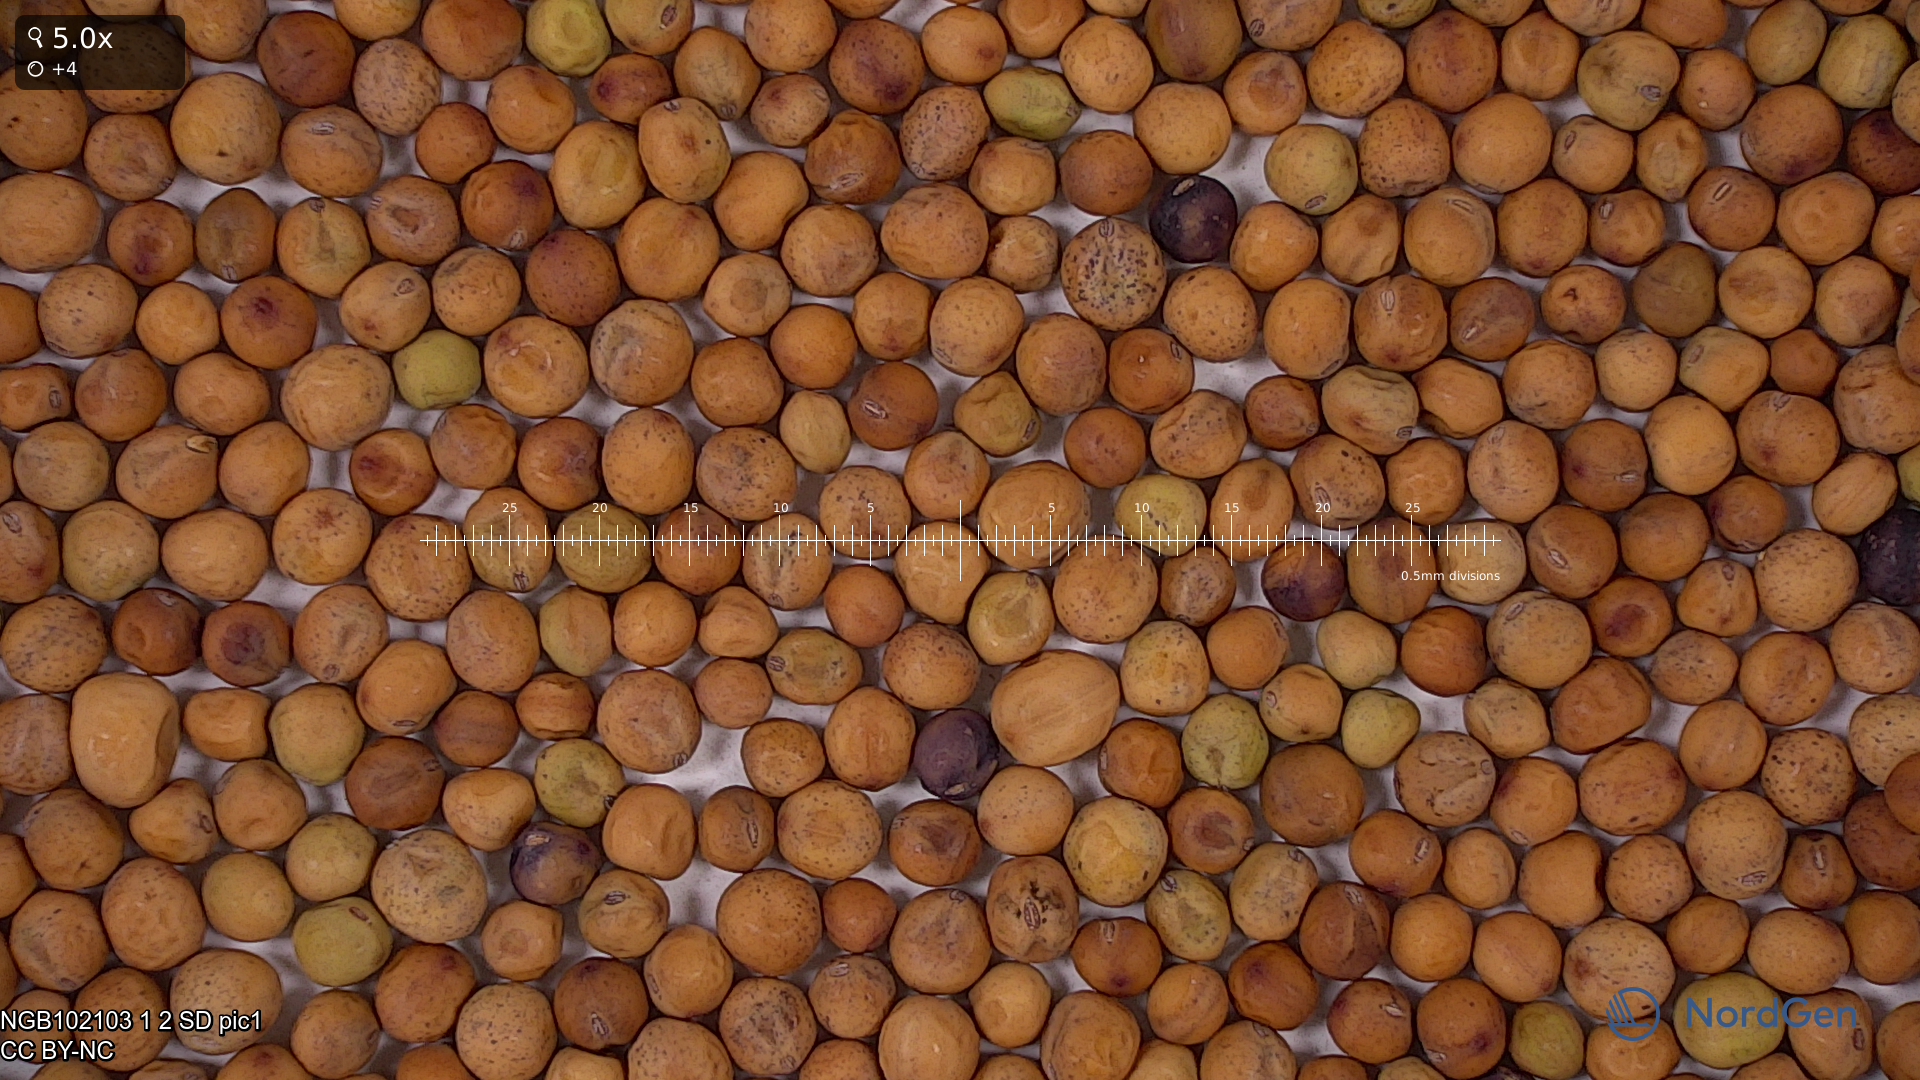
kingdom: Plantae
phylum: Tracheophyta
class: Magnoliopsida
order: Fabales
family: Fabaceae
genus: Lathyrus
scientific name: Lathyrus oleraceus
